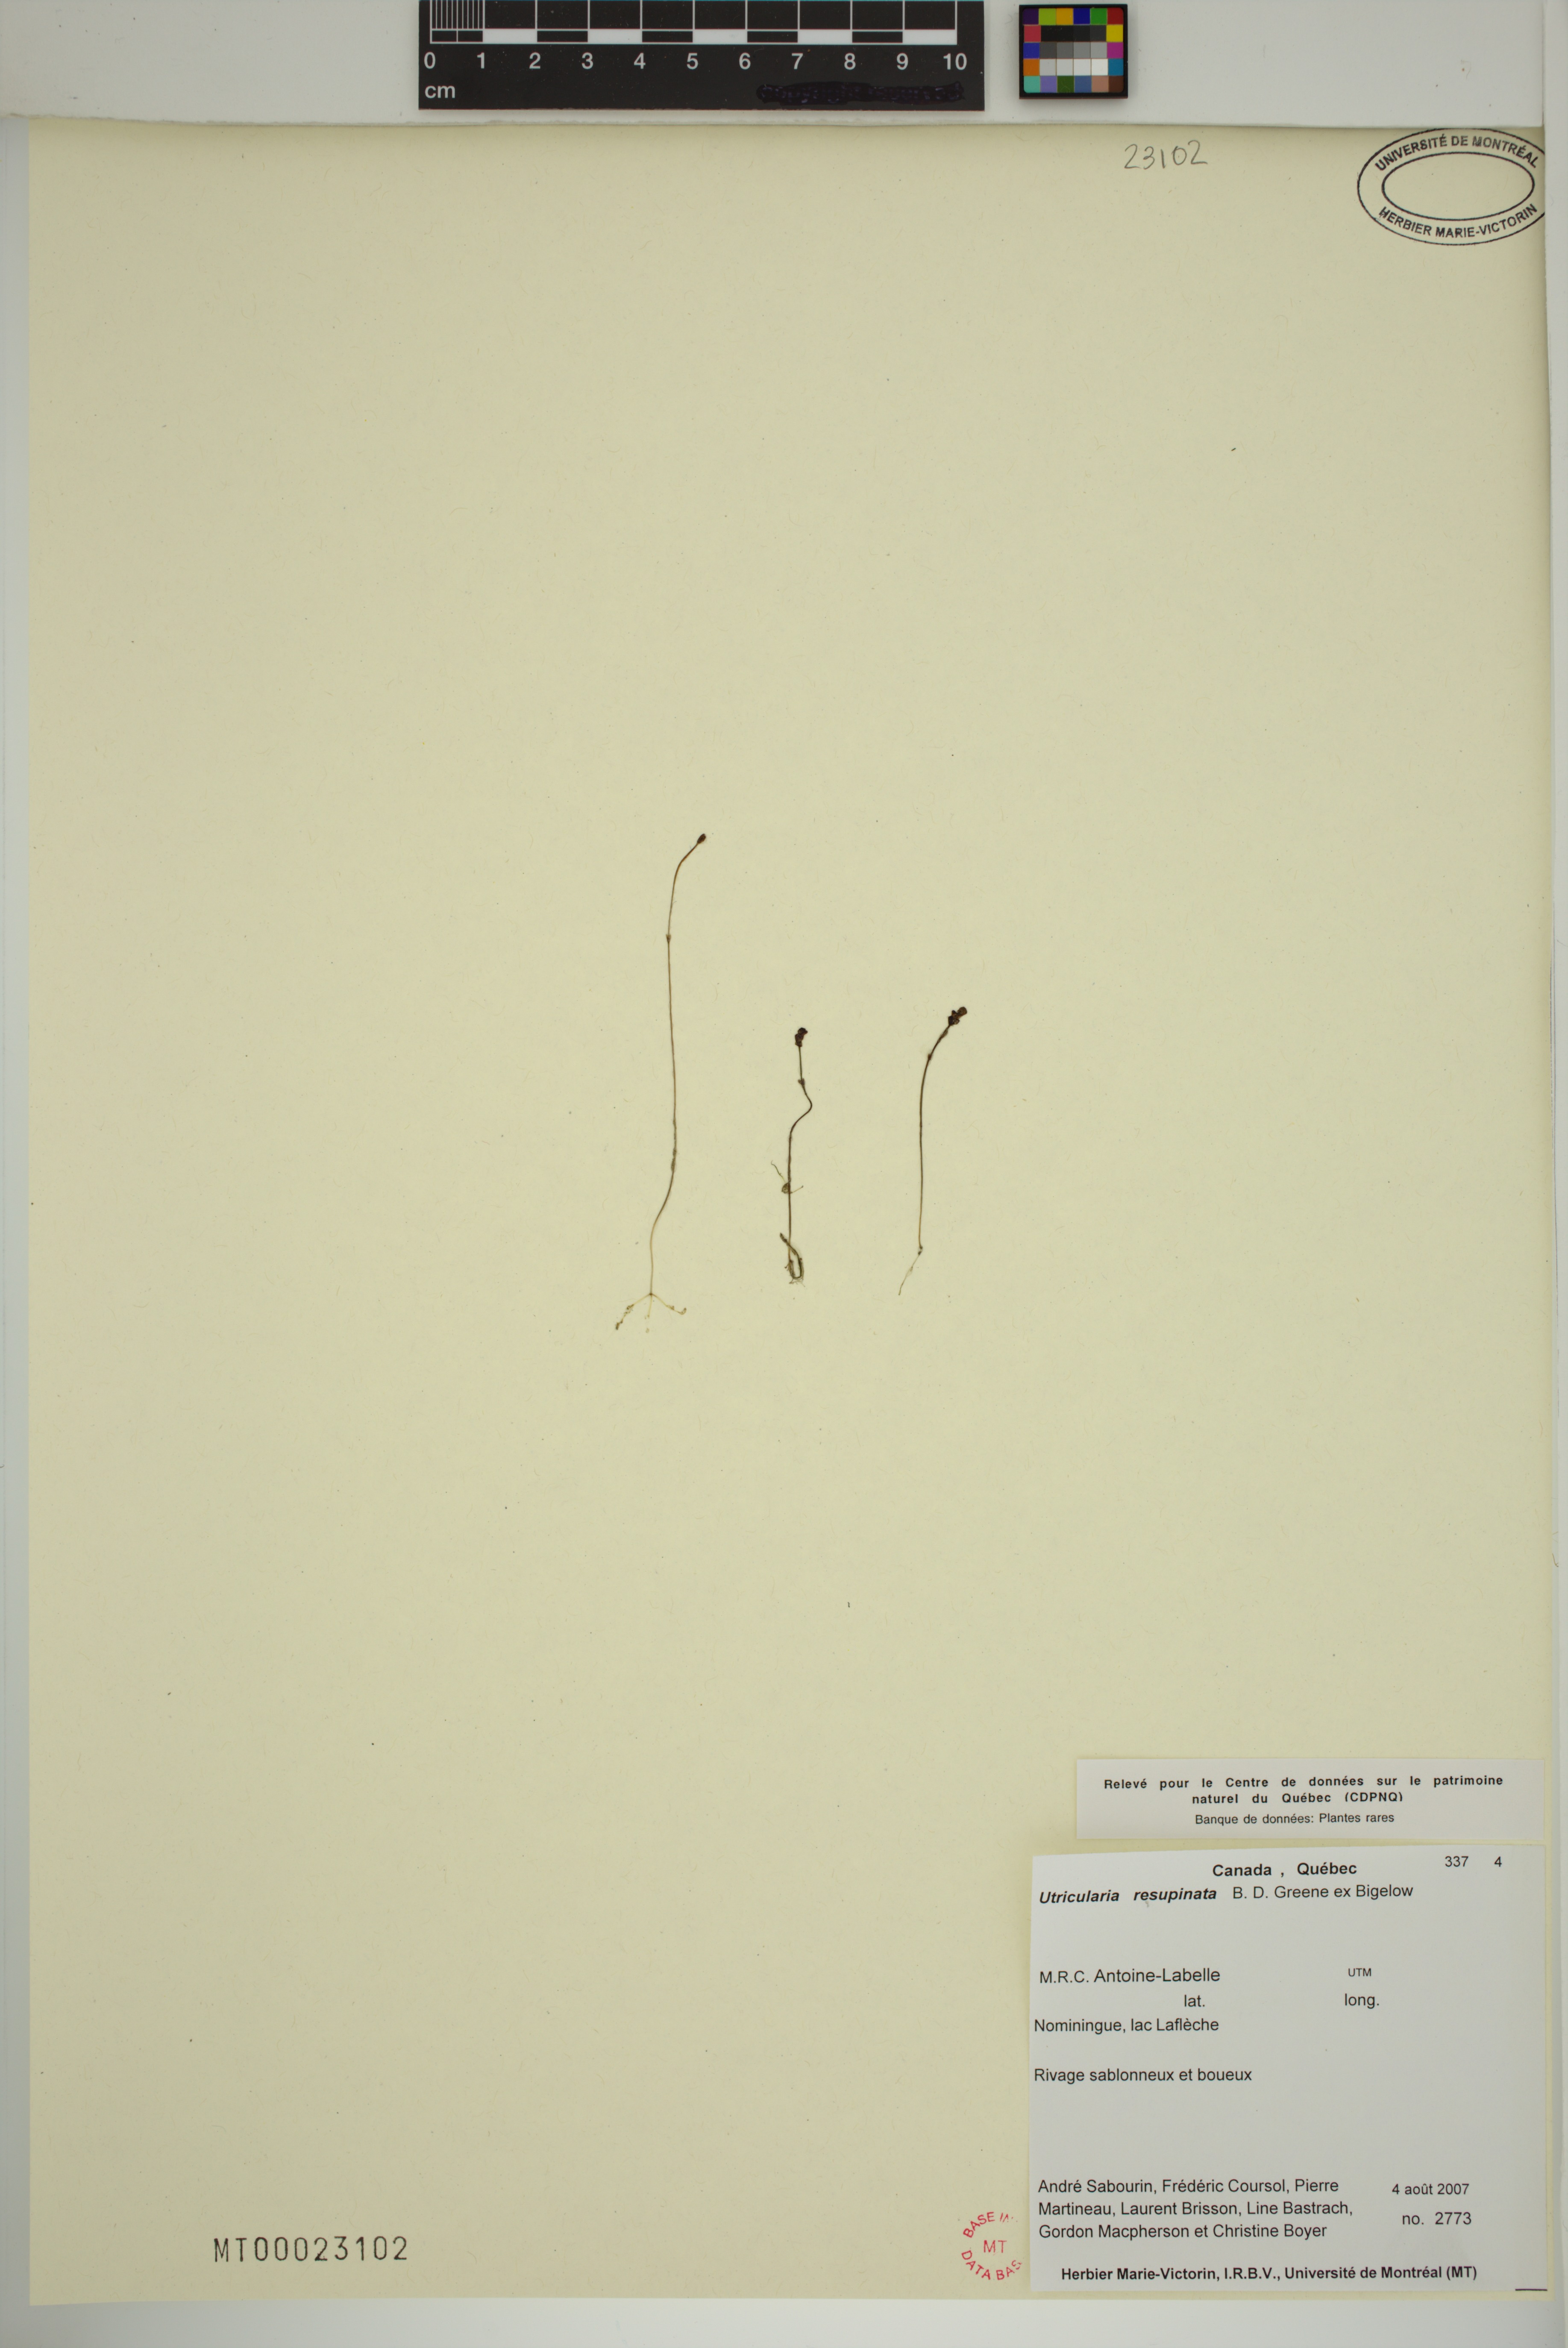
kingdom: Plantae
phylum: Tracheophyta
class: Magnoliopsida
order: Lamiales
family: Lentibulariaceae
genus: Utricularia
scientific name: Utricularia resupinata
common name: Northeastern bladderwort
